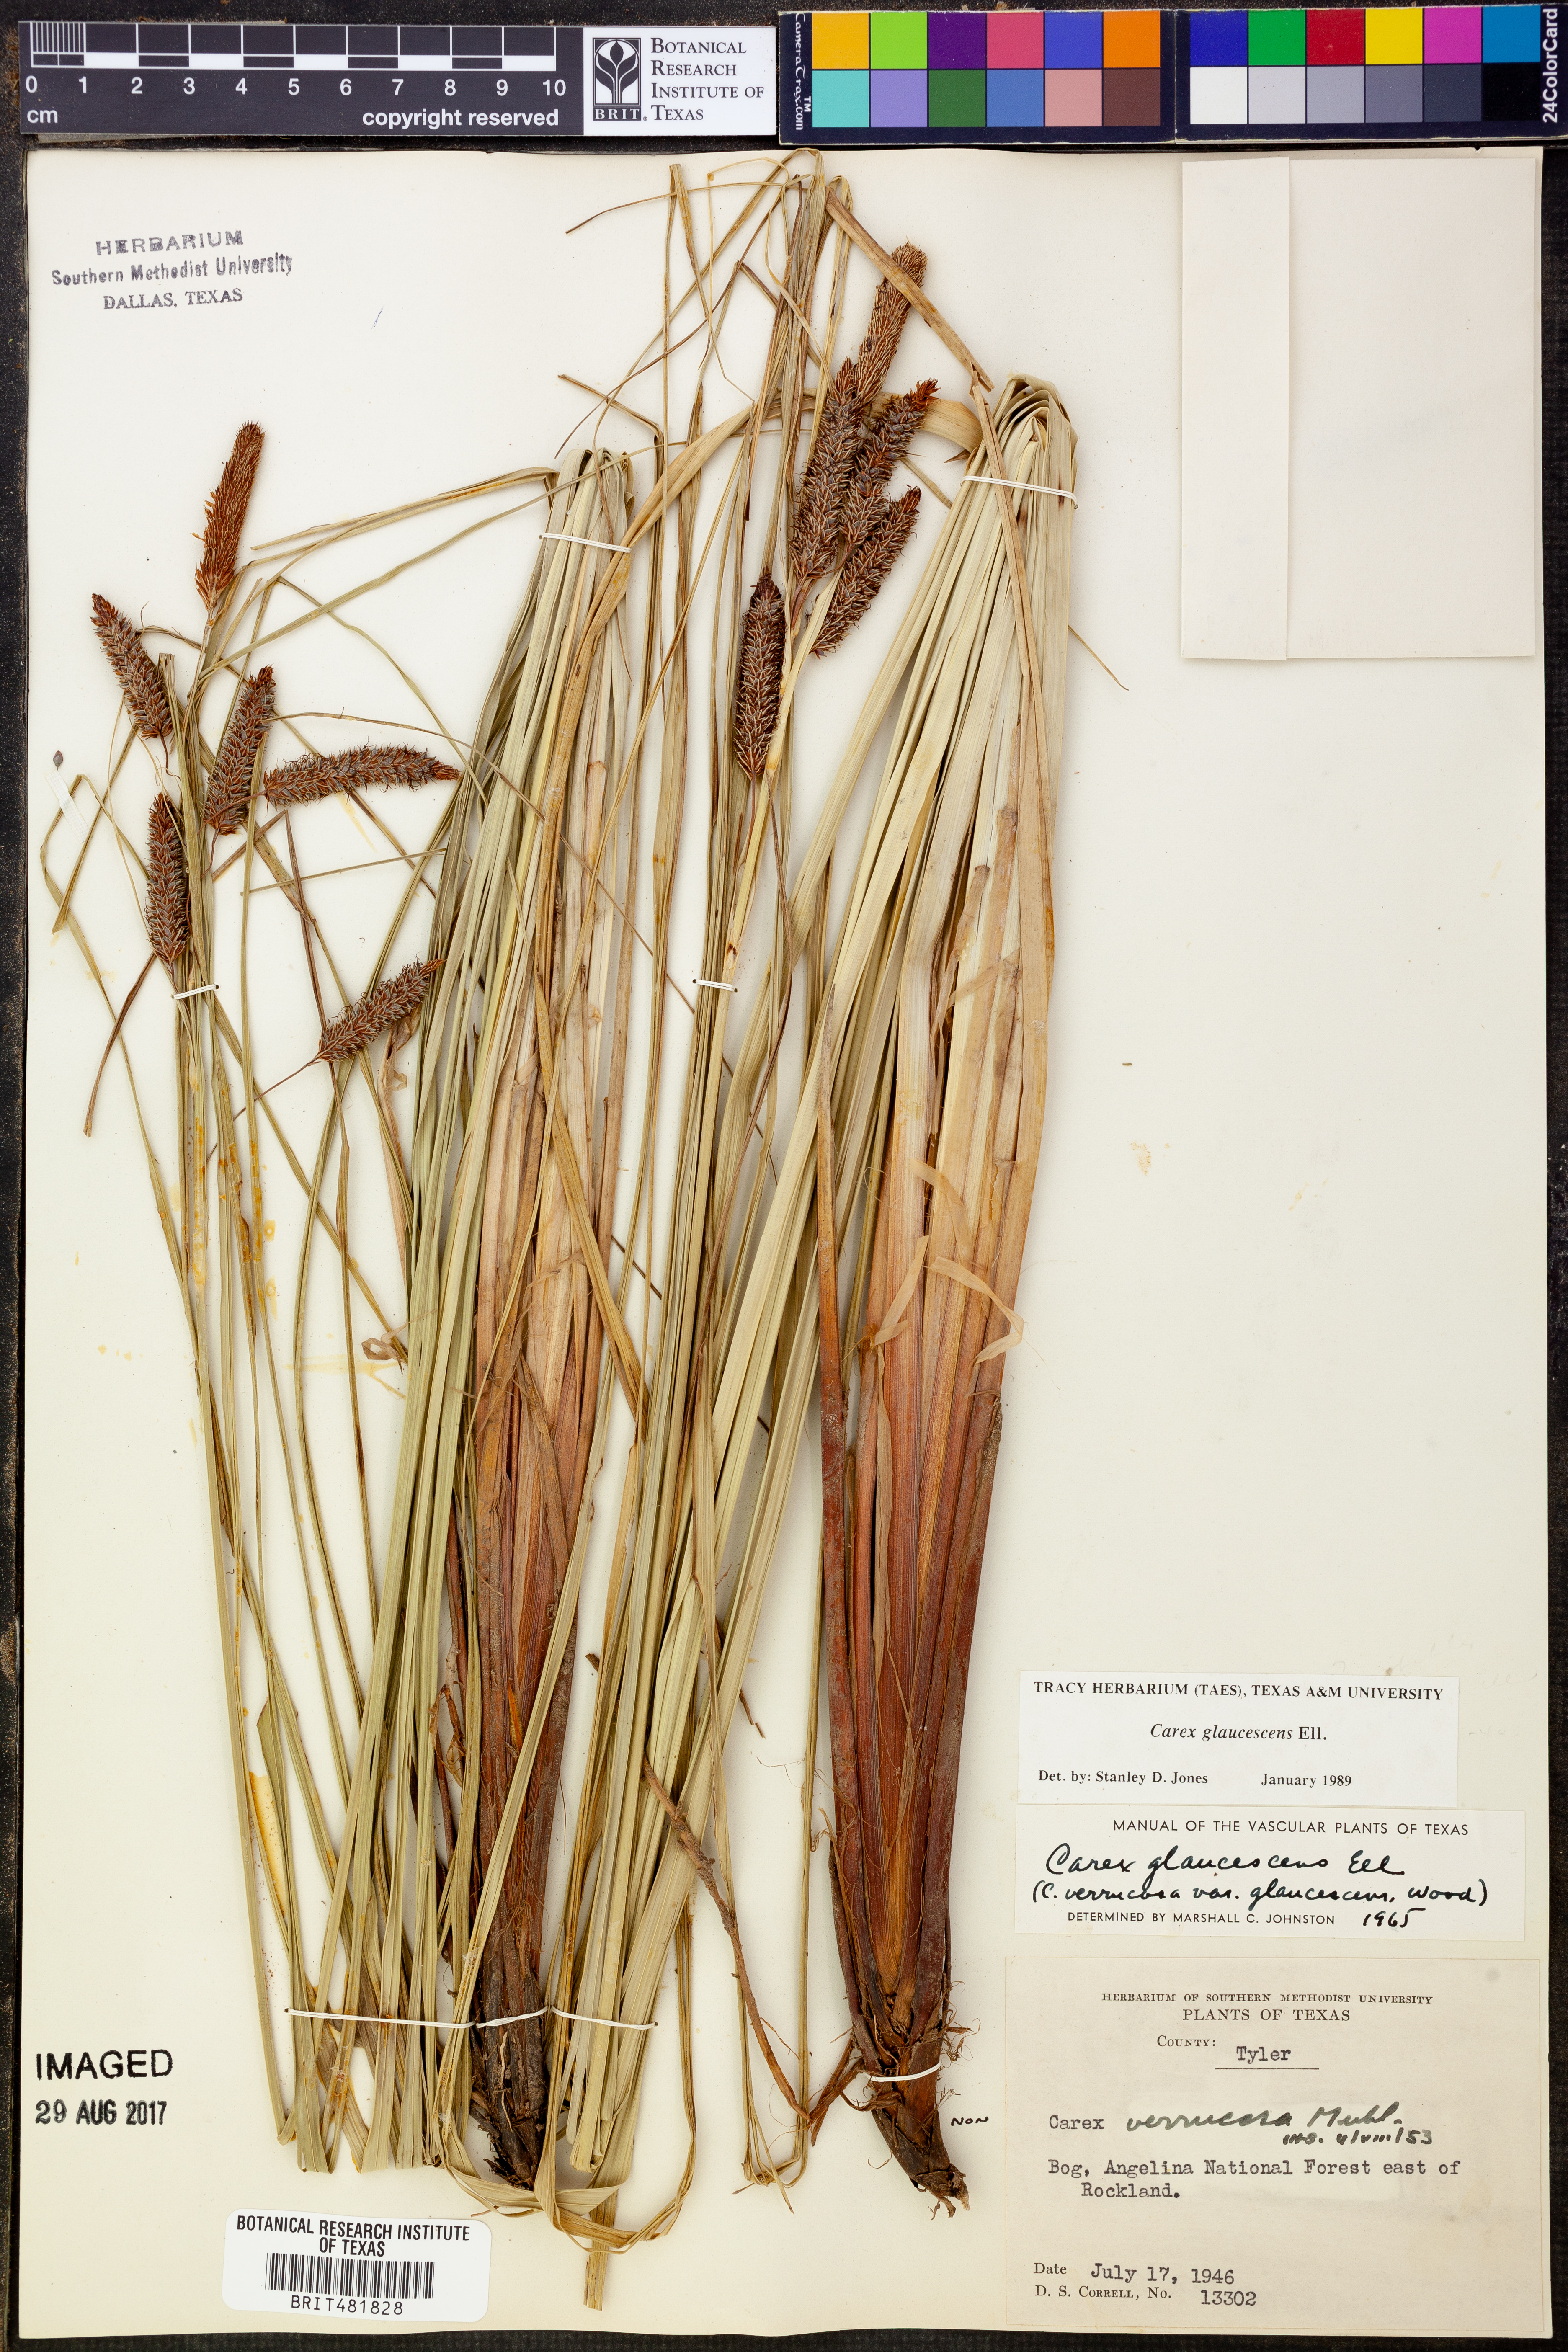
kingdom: Plantae
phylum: Tracheophyta
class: Liliopsida
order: Poales
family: Cyperaceae
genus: Carex
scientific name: Carex glaucescens
